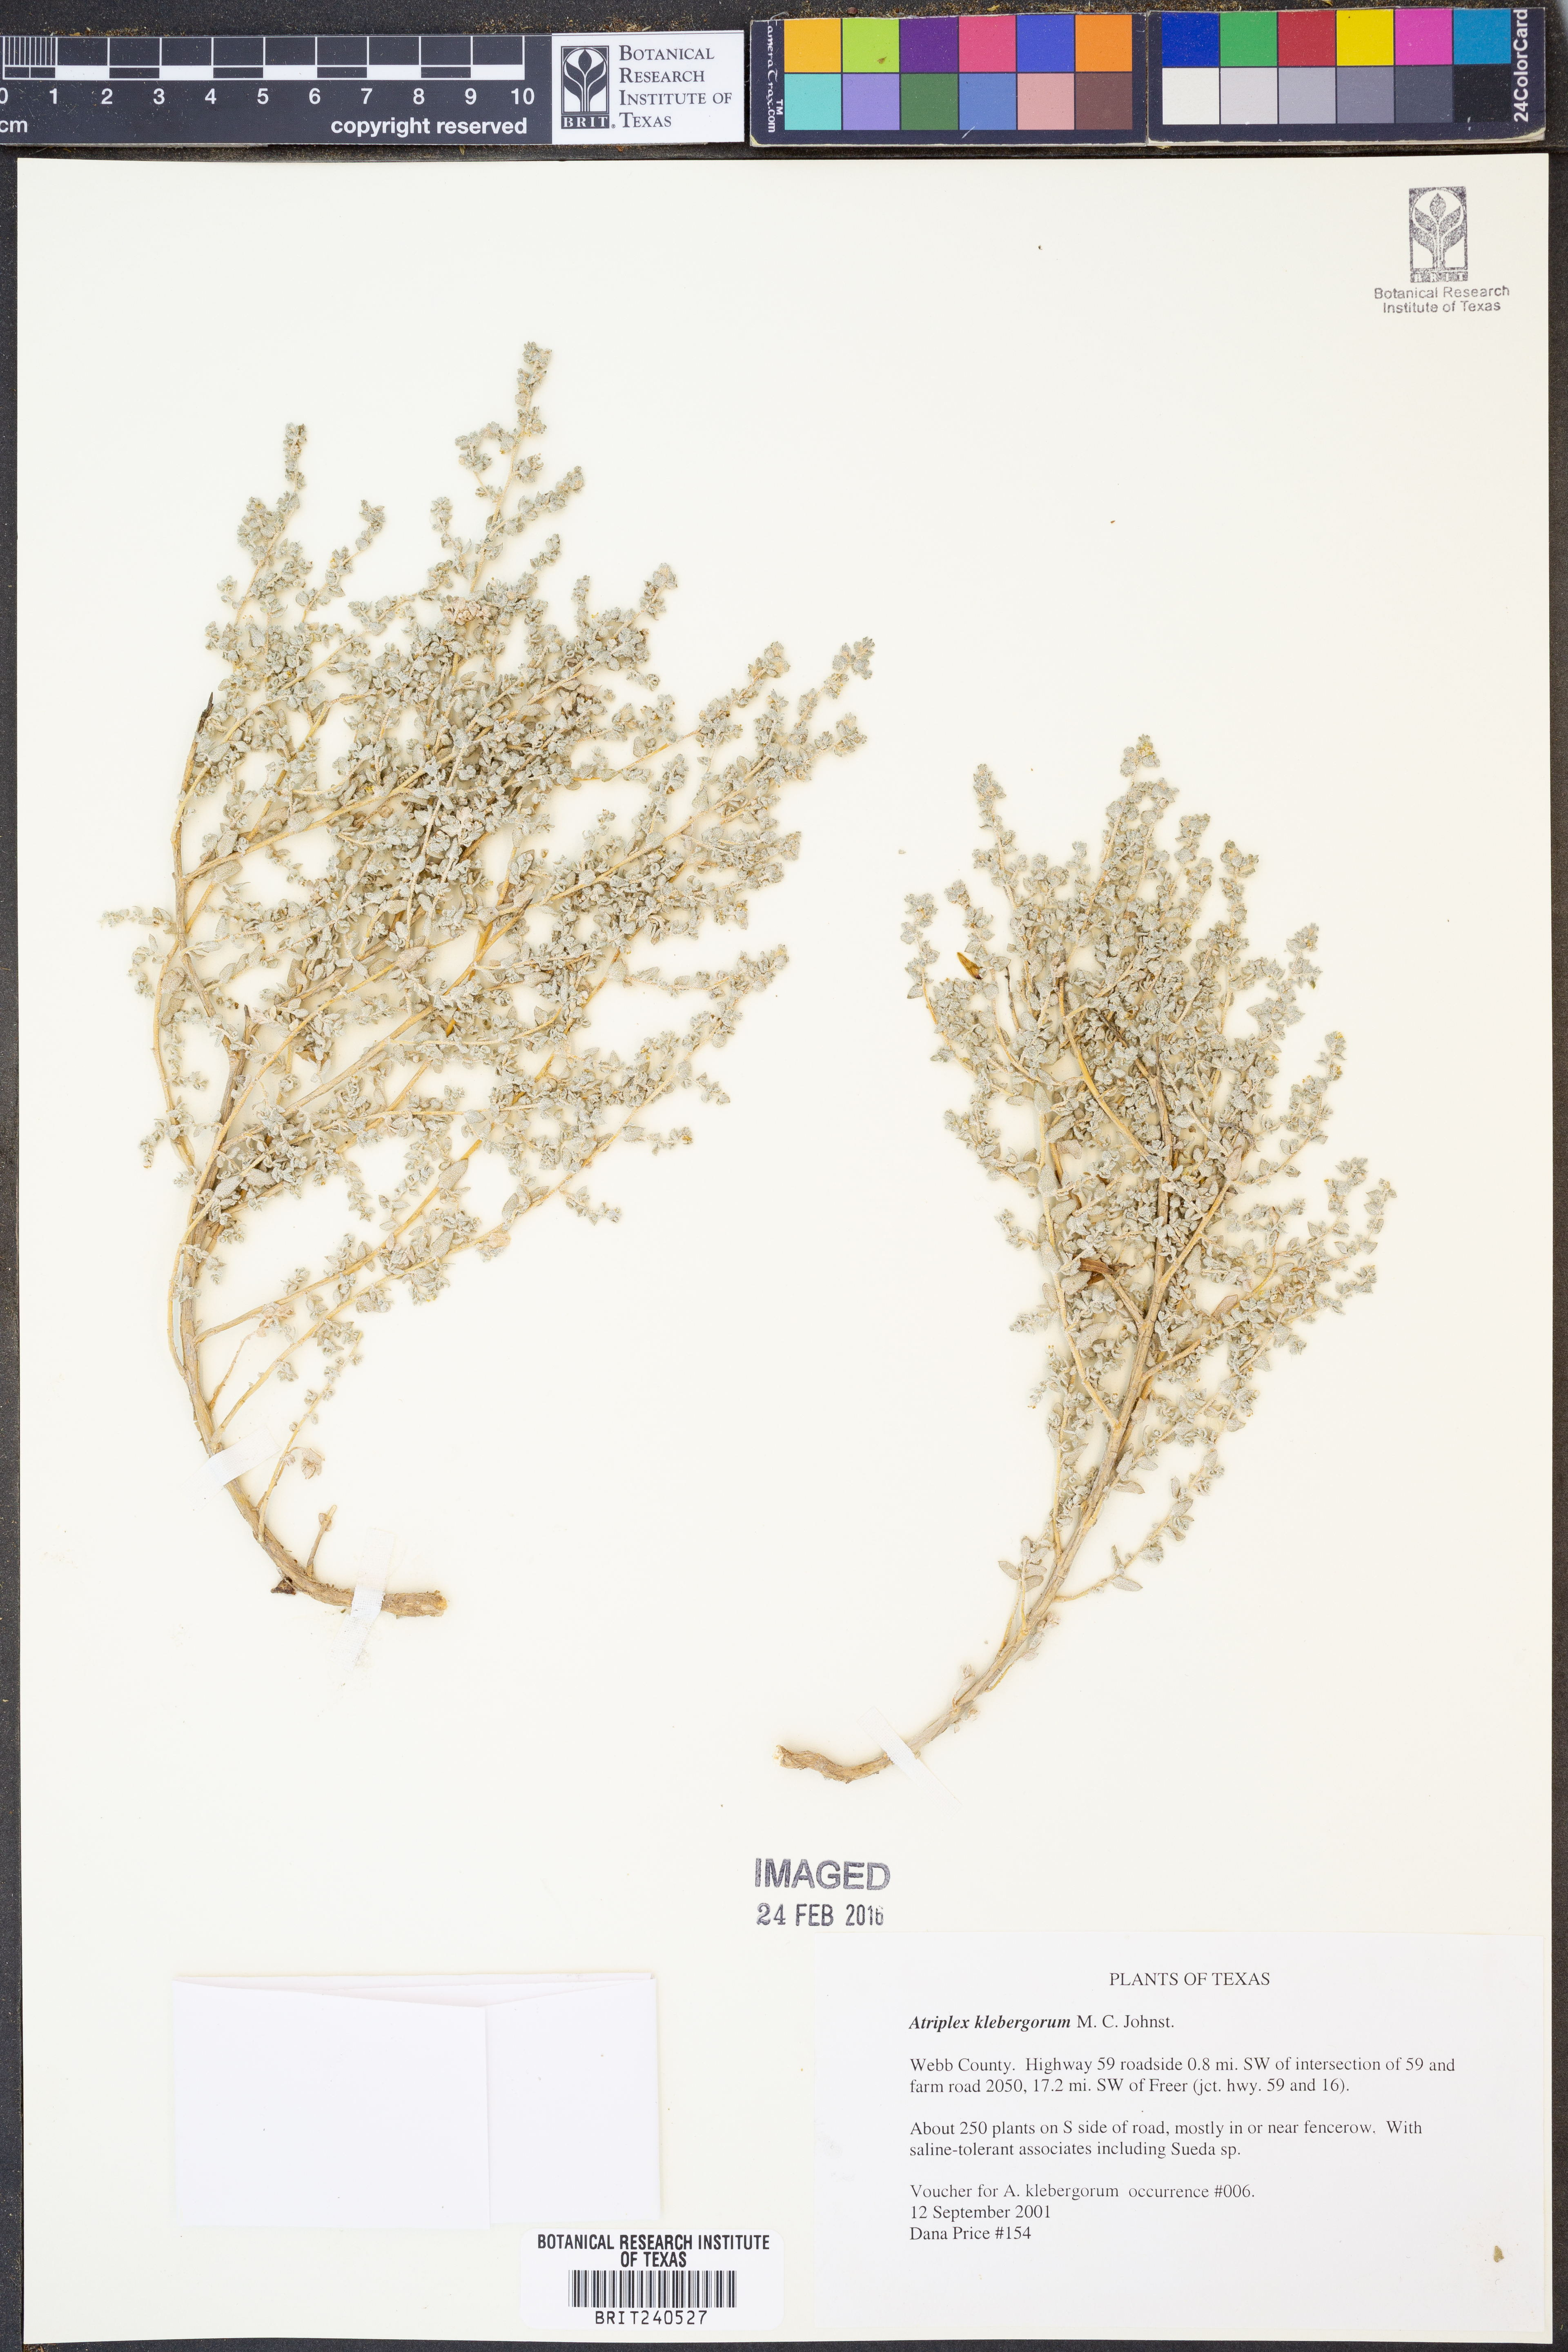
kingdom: Plantae
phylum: Tracheophyta
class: Magnoliopsida
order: Caryophyllales
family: Amaranthaceae
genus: Atriplex
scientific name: Atriplex klebergorum
